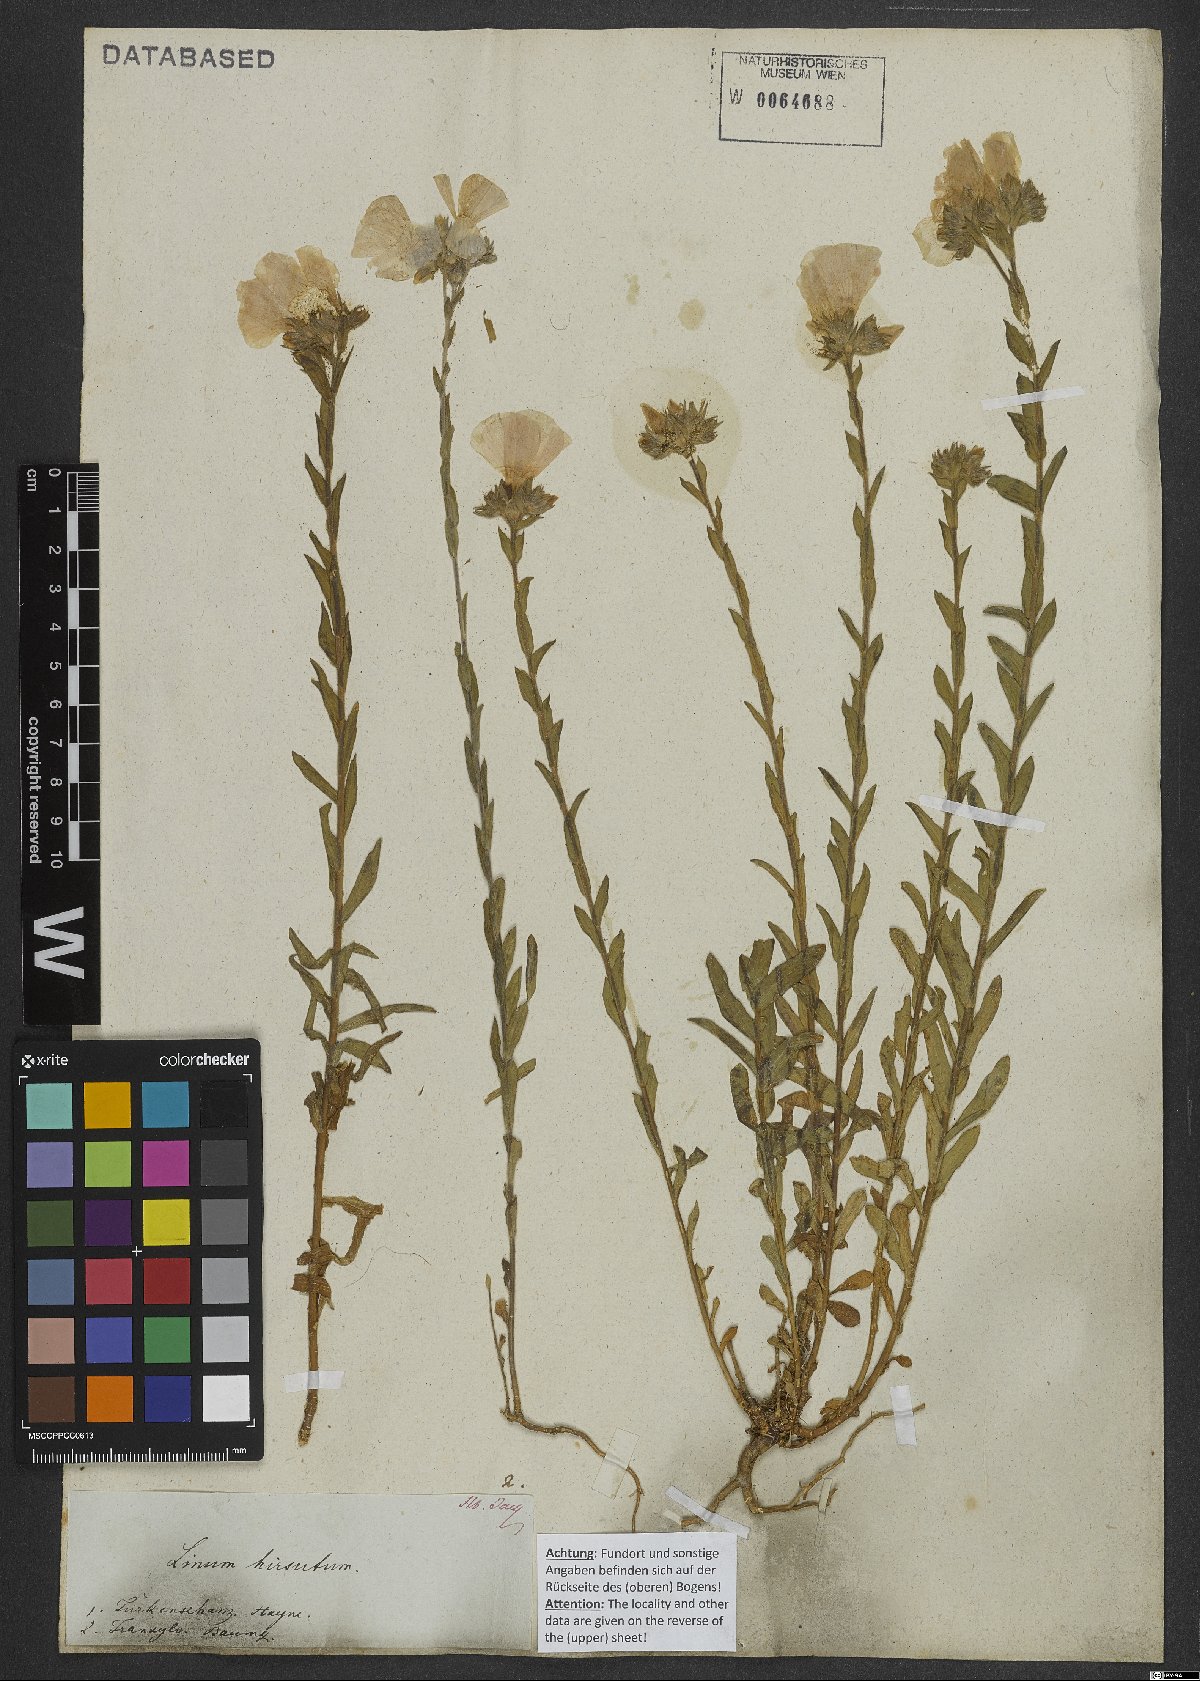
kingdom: Plantae
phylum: Tracheophyta
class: Magnoliopsida
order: Malpighiales
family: Linaceae
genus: Linum
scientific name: Linum hirsutum
